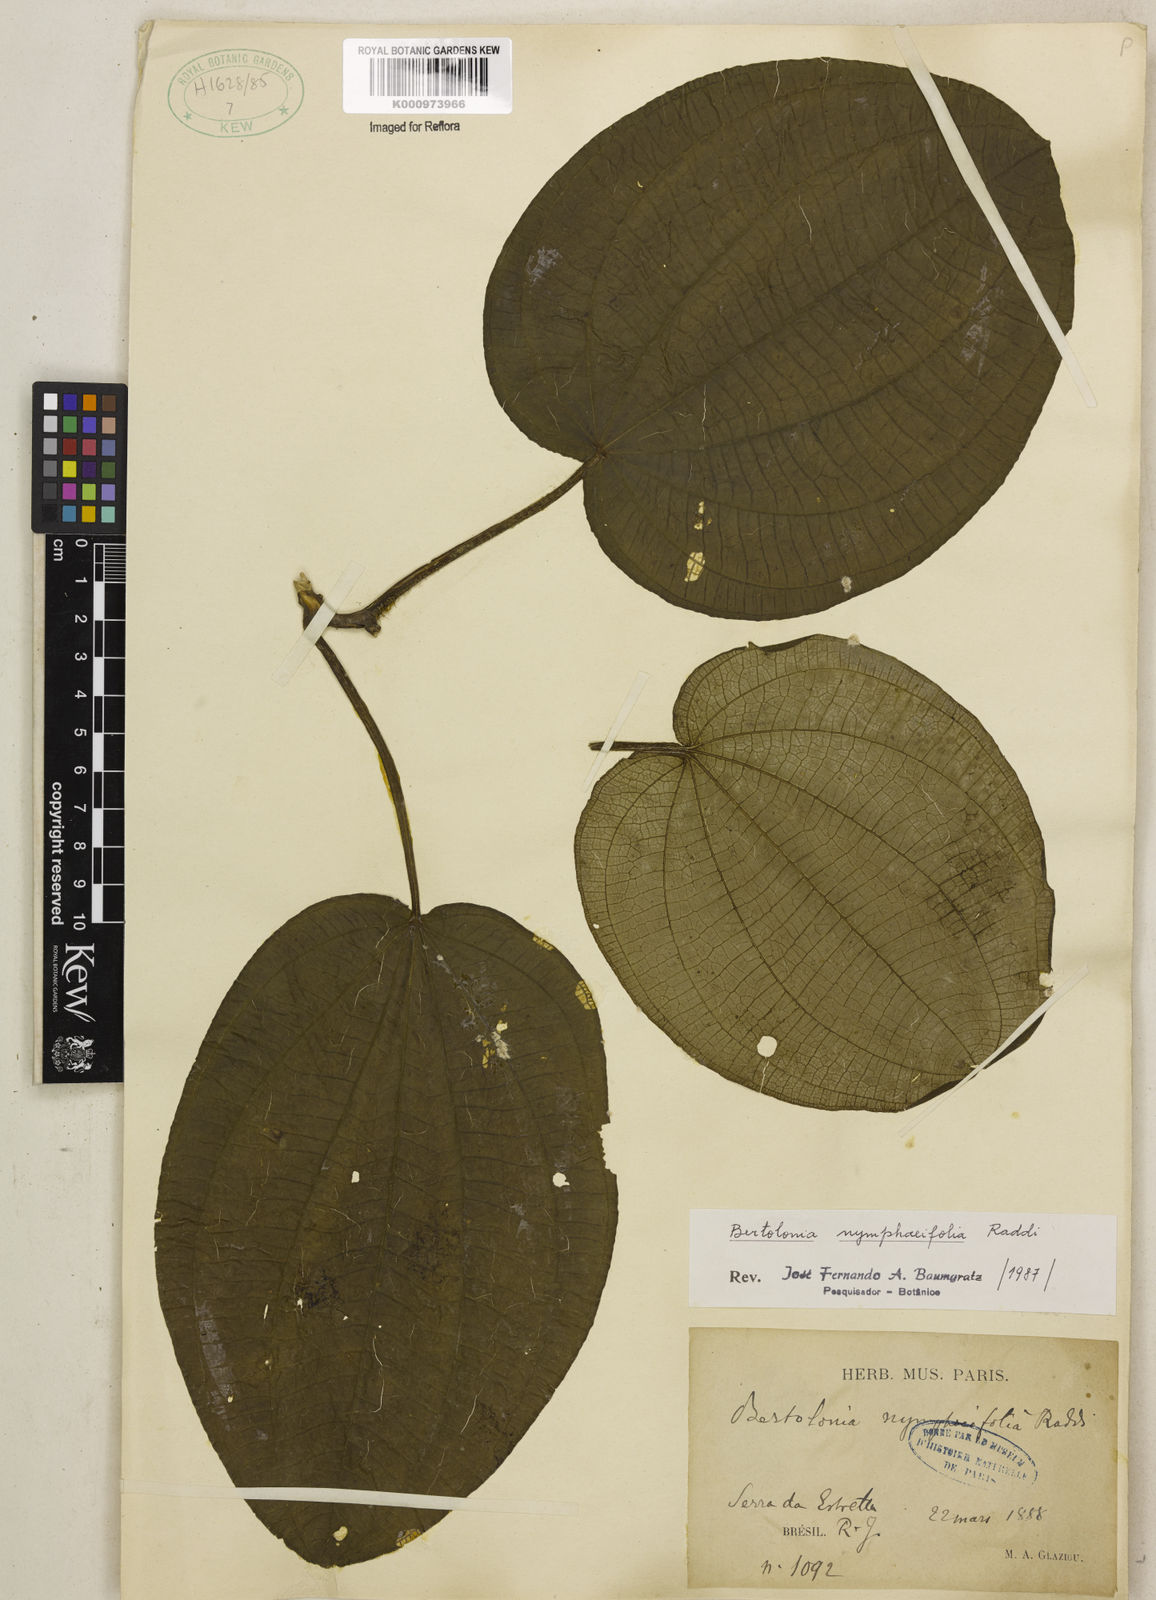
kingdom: Plantae
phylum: Tracheophyta
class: Magnoliopsida
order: Myrtales
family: Melastomataceae
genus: Bertolonia
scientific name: Bertolonia nymphaeifolia
